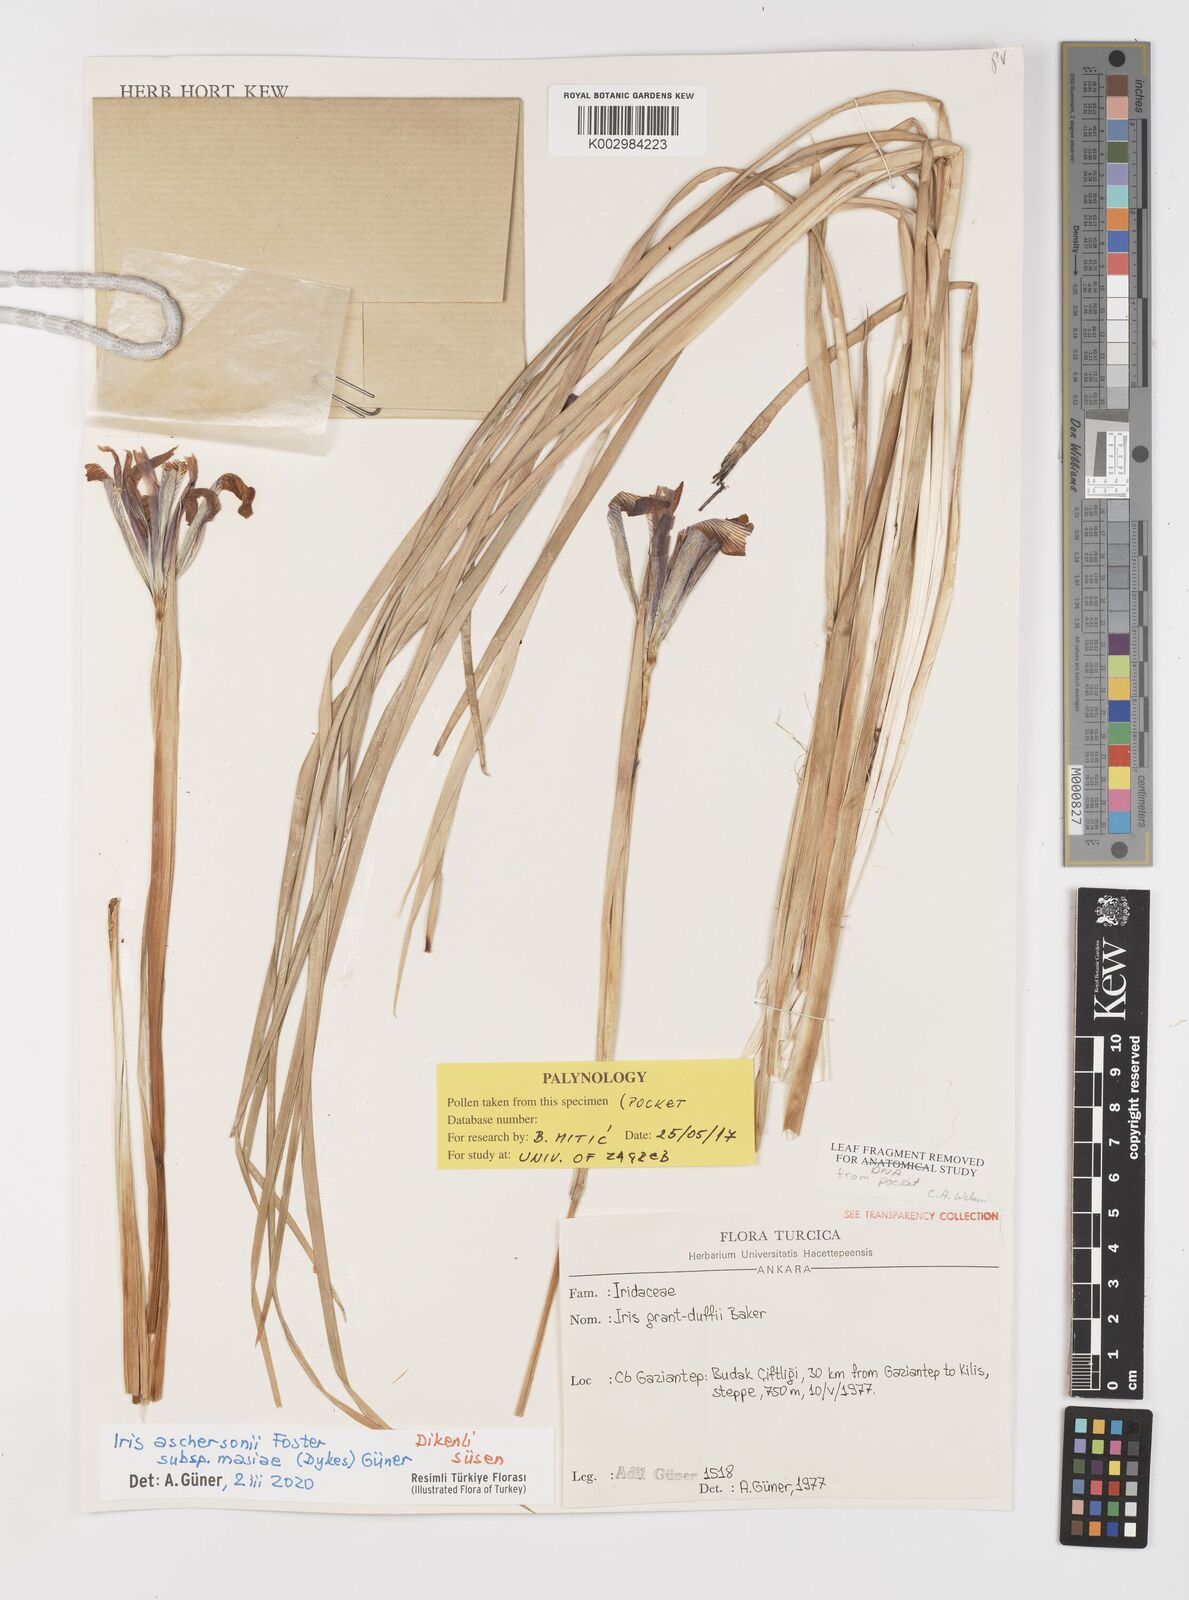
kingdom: Plantae
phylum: Tracheophyta
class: Liliopsida
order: Asparagales
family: Iridaceae
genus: Iris
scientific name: Iris grant-duffii
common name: Grant duff's iris
